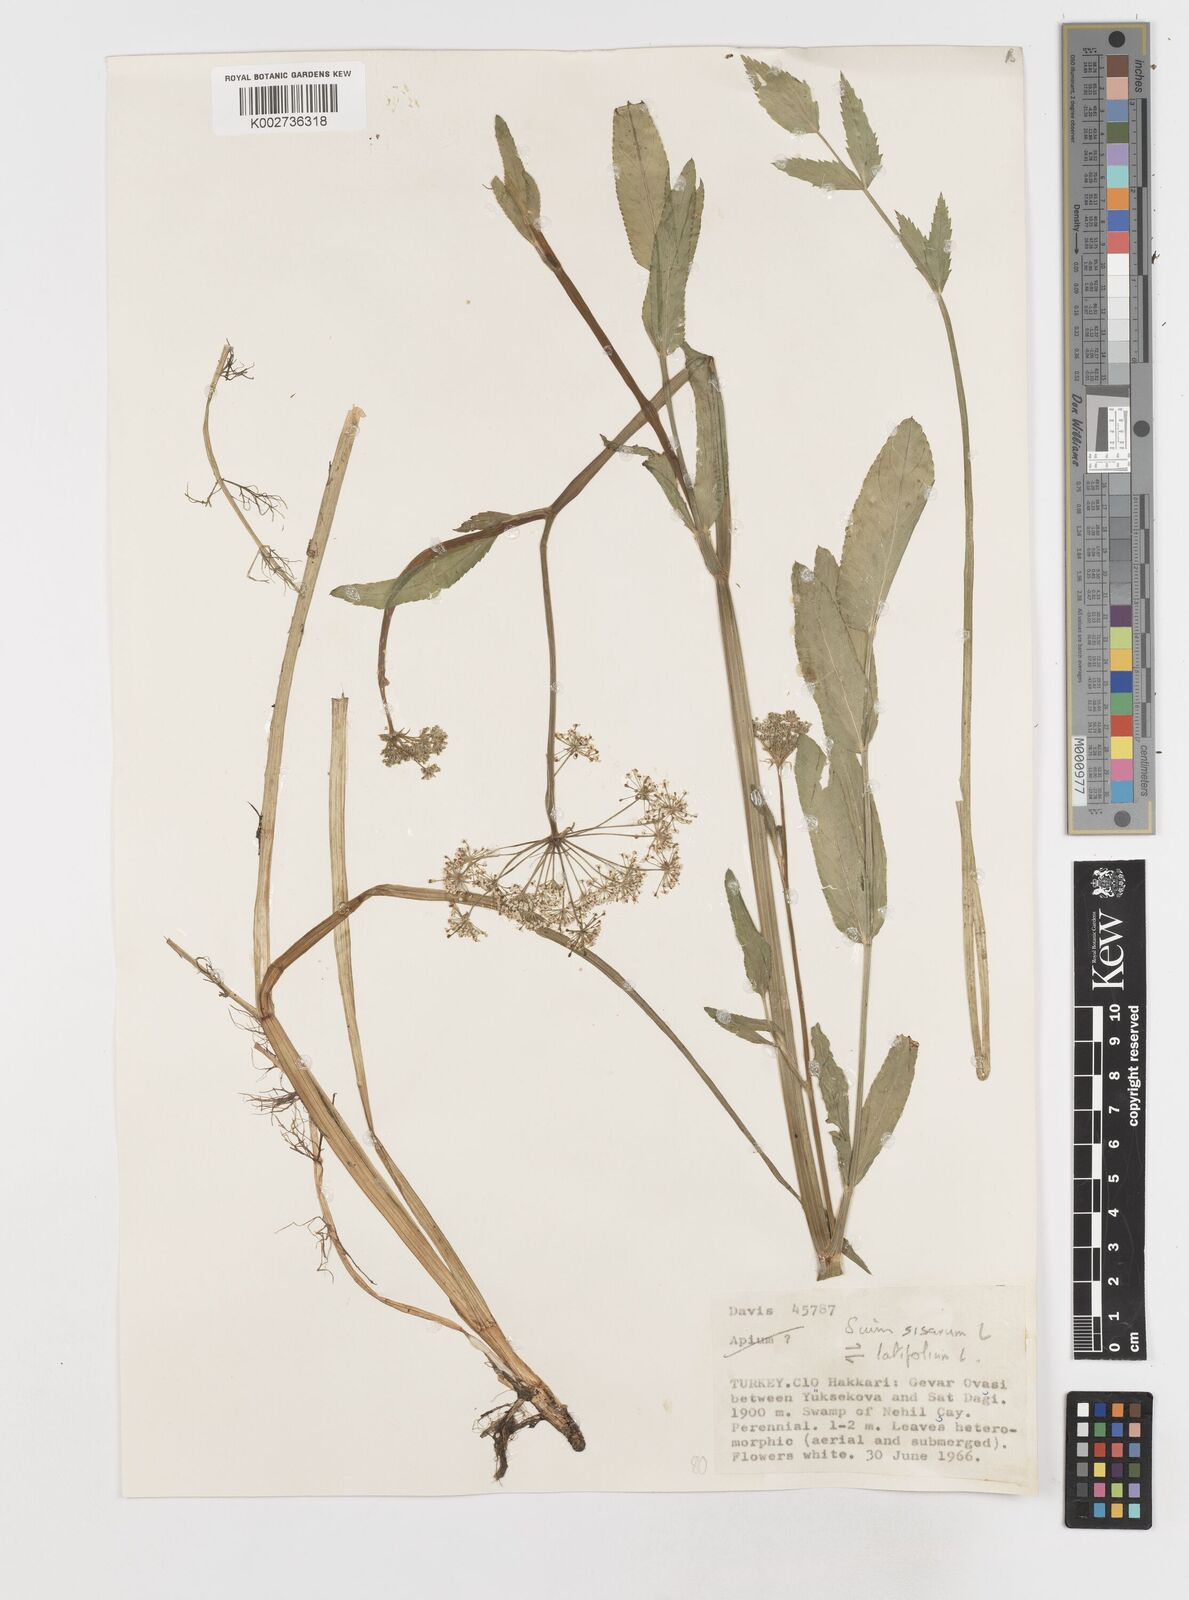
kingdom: Plantae
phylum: Tracheophyta
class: Magnoliopsida
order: Apiales
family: Apiaceae
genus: Sium
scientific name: Sium sisarum
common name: Skirret
